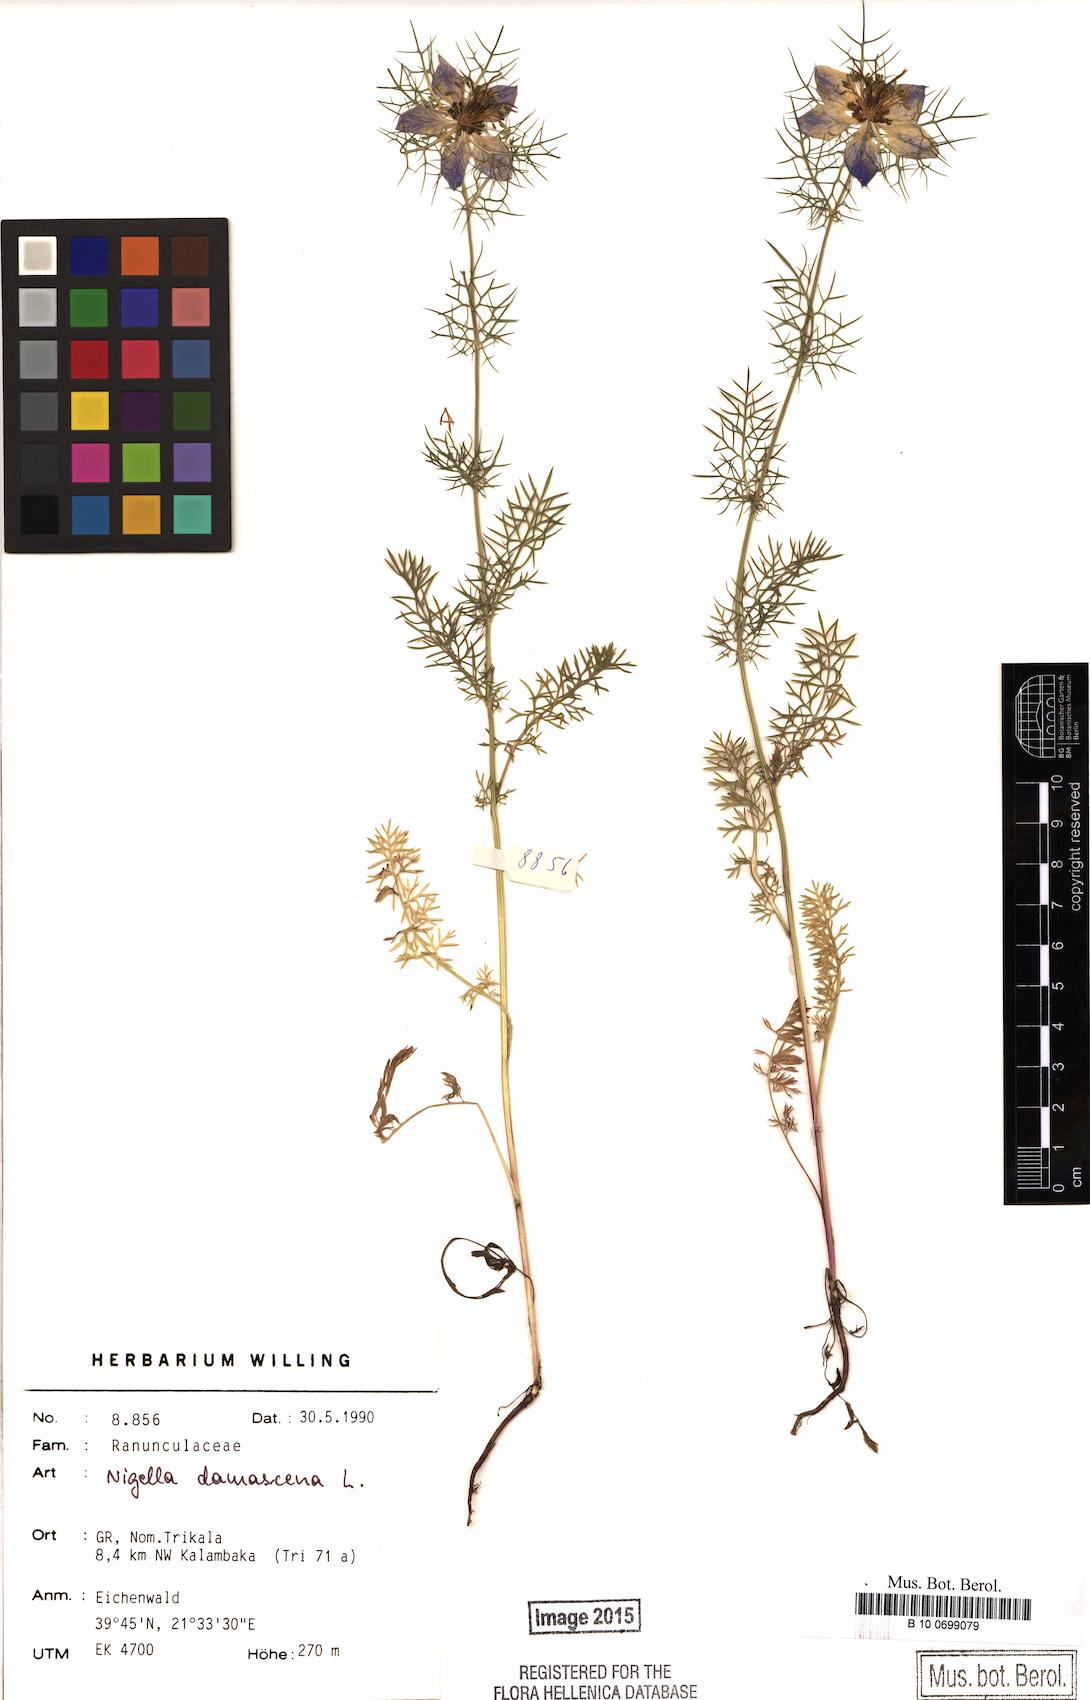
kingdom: Plantae
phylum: Tracheophyta
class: Magnoliopsida
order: Ranunculales
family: Ranunculaceae
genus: Nigella
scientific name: Nigella damascena
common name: Love-in-a-mist
